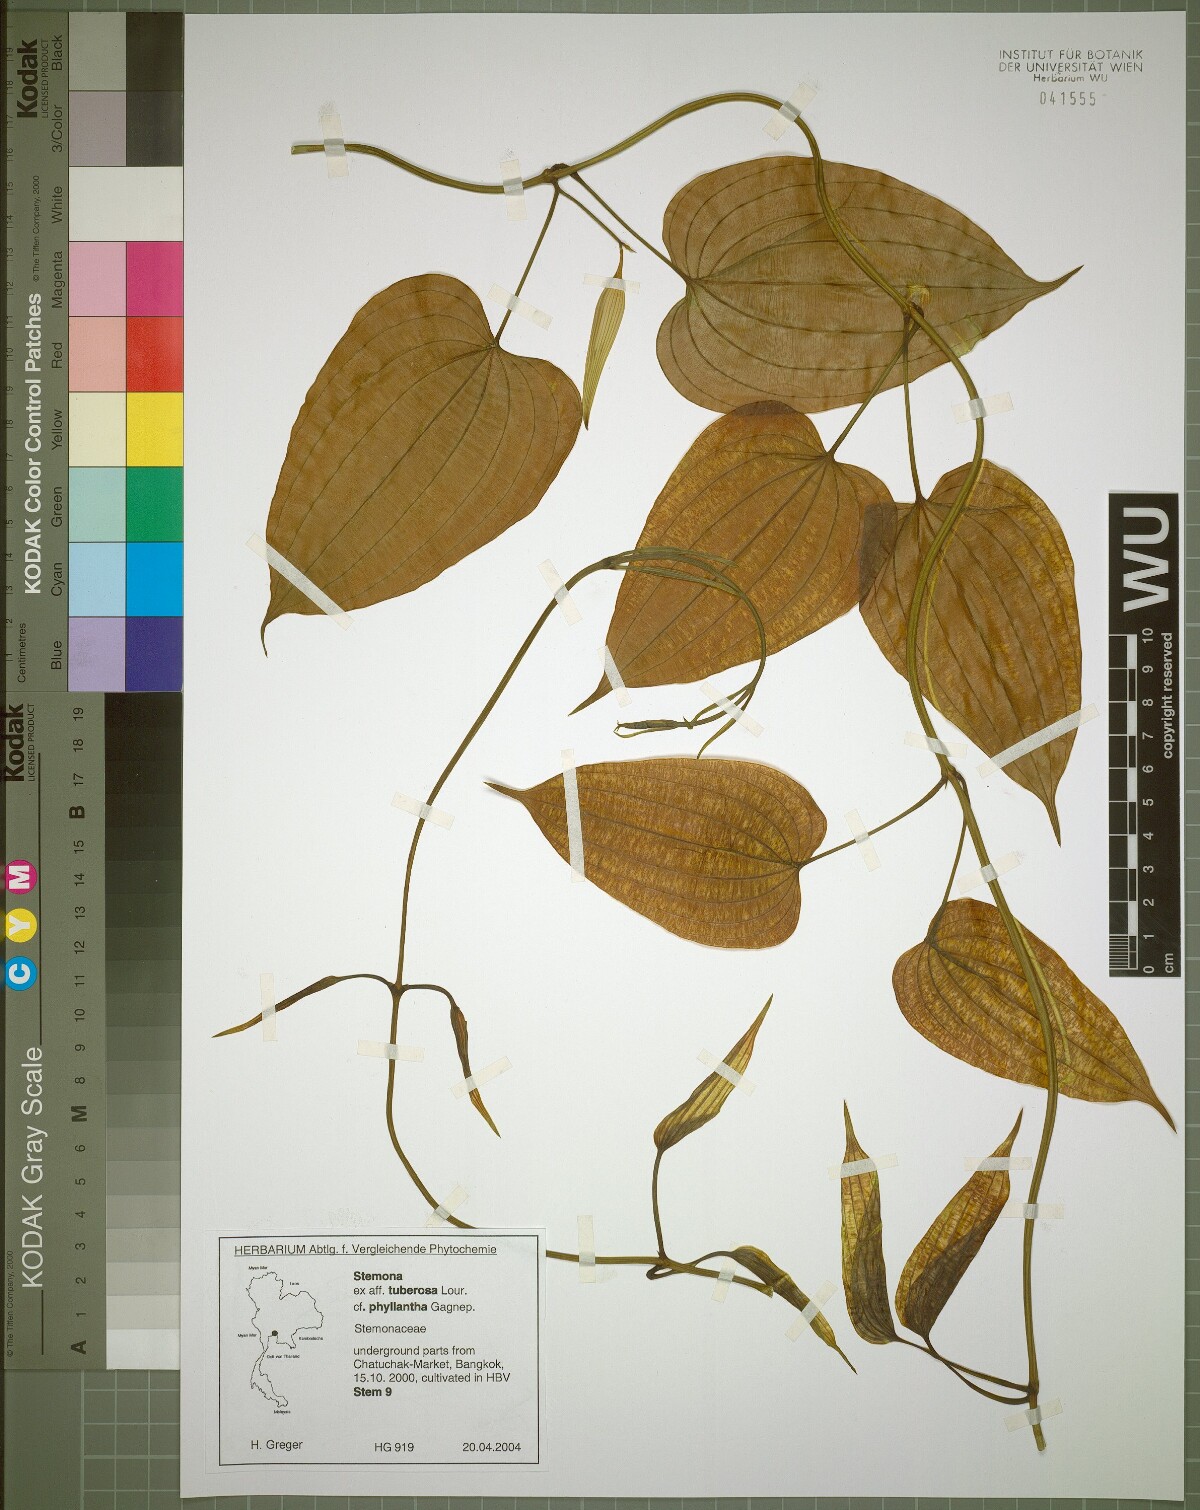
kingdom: Plantae
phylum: Tracheophyta
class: Liliopsida
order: Pandanales
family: Stemonaceae
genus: Stemona
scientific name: Stemona phyllantha
